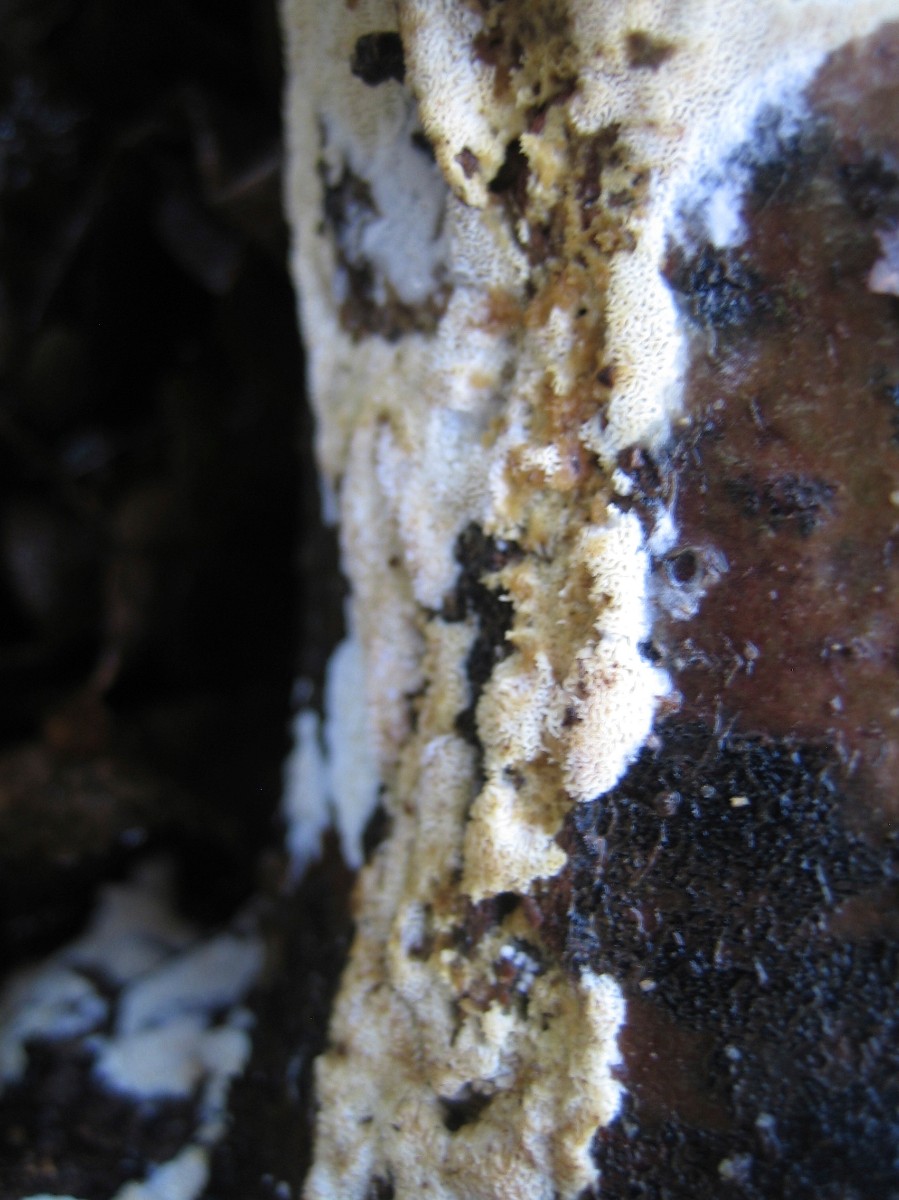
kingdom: Fungi
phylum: Basidiomycota
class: Agaricomycetes
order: Hymenochaetales
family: Schizoporaceae
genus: Xylodon
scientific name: Xylodon subtropicus
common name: labyrint-tandsvamp
